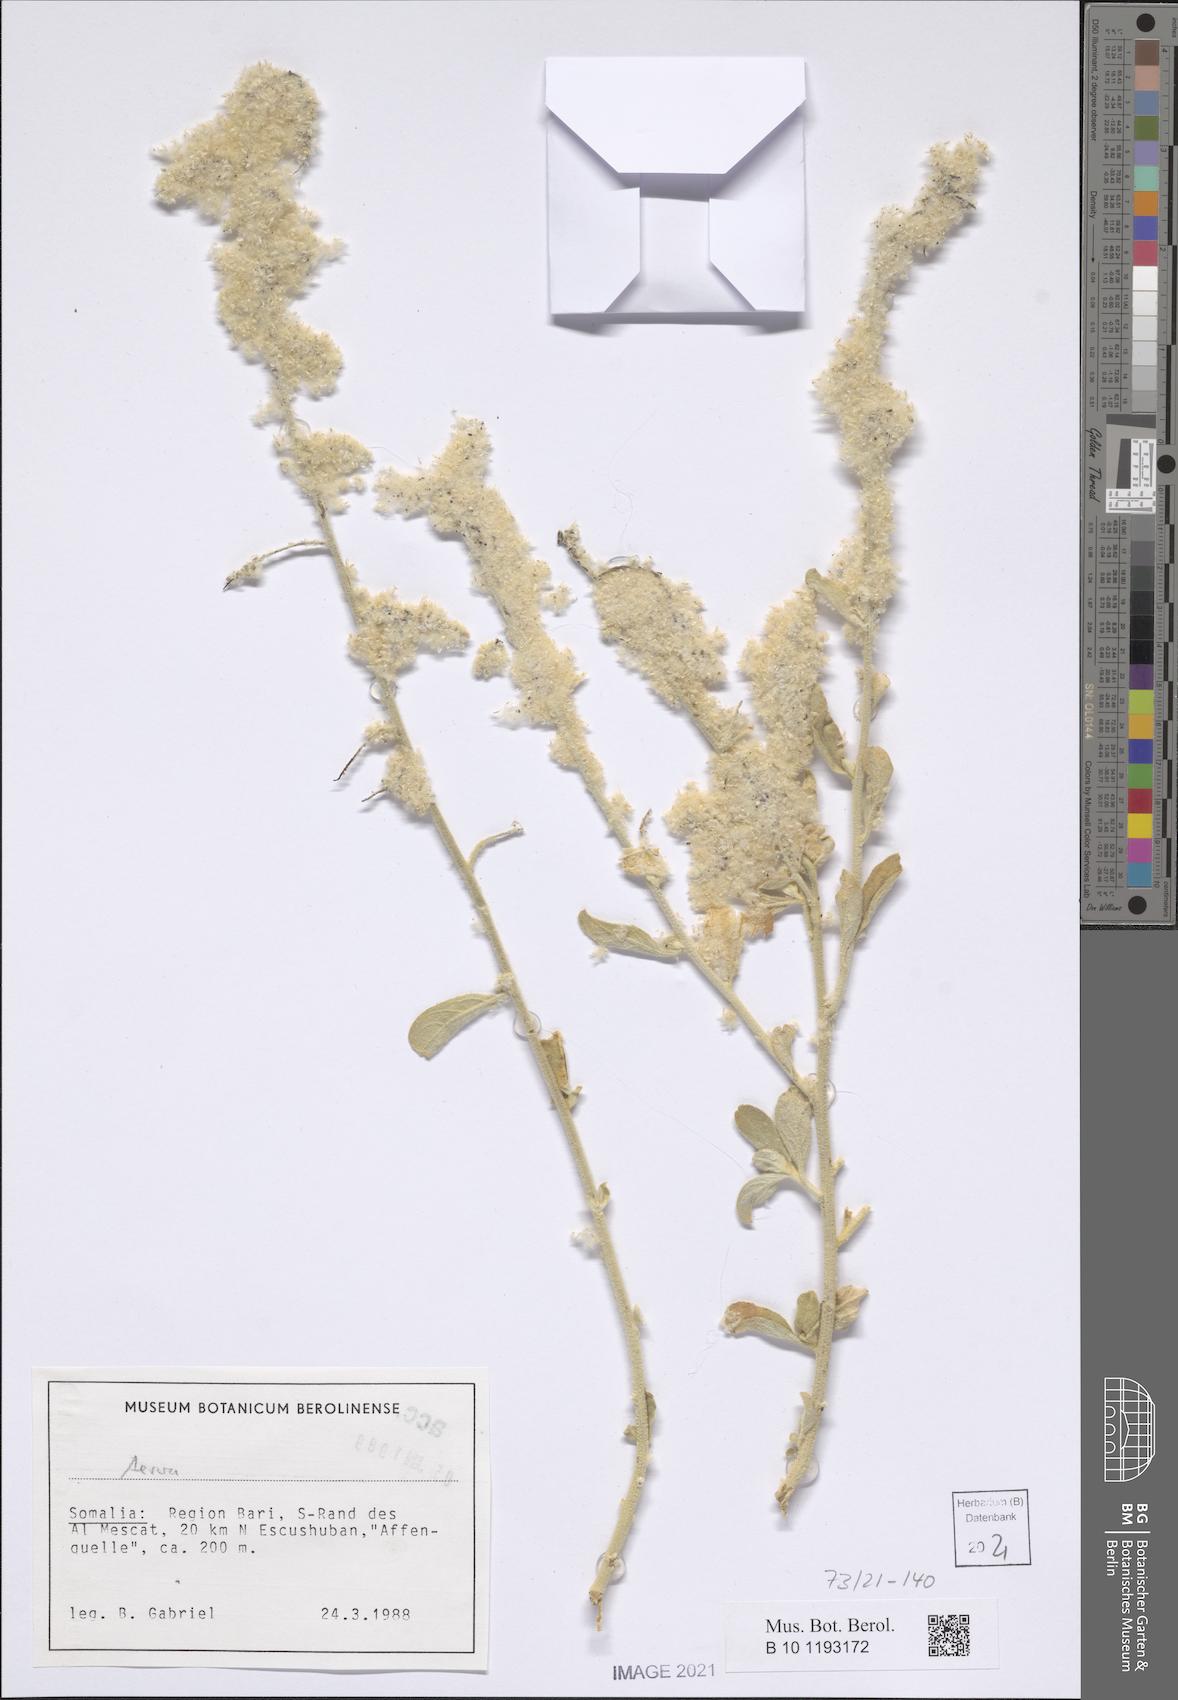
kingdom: Plantae
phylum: Tracheophyta
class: Magnoliopsida
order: Caryophyllales
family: Amaranthaceae
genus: Ouret
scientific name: Ouret lanata
